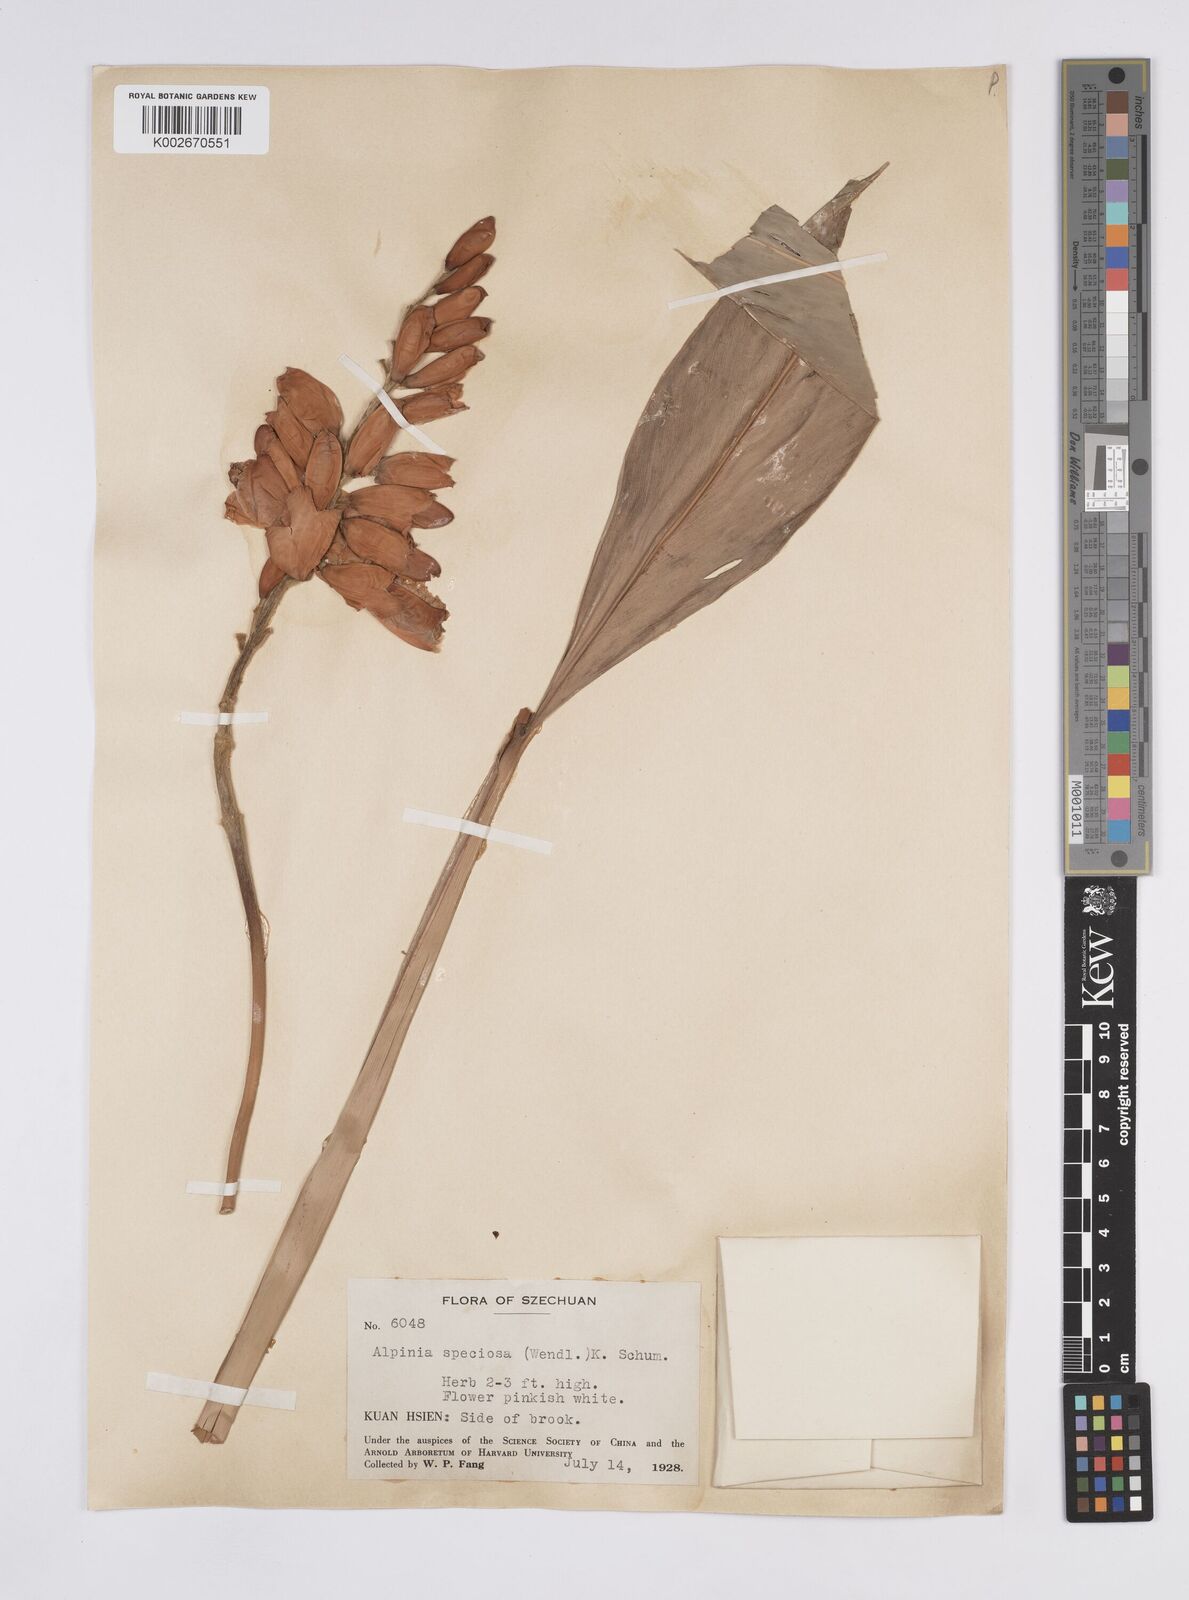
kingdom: Plantae
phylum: Tracheophyta
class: Liliopsida
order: Zingiberales
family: Zingiberaceae
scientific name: Zingiberaceae
